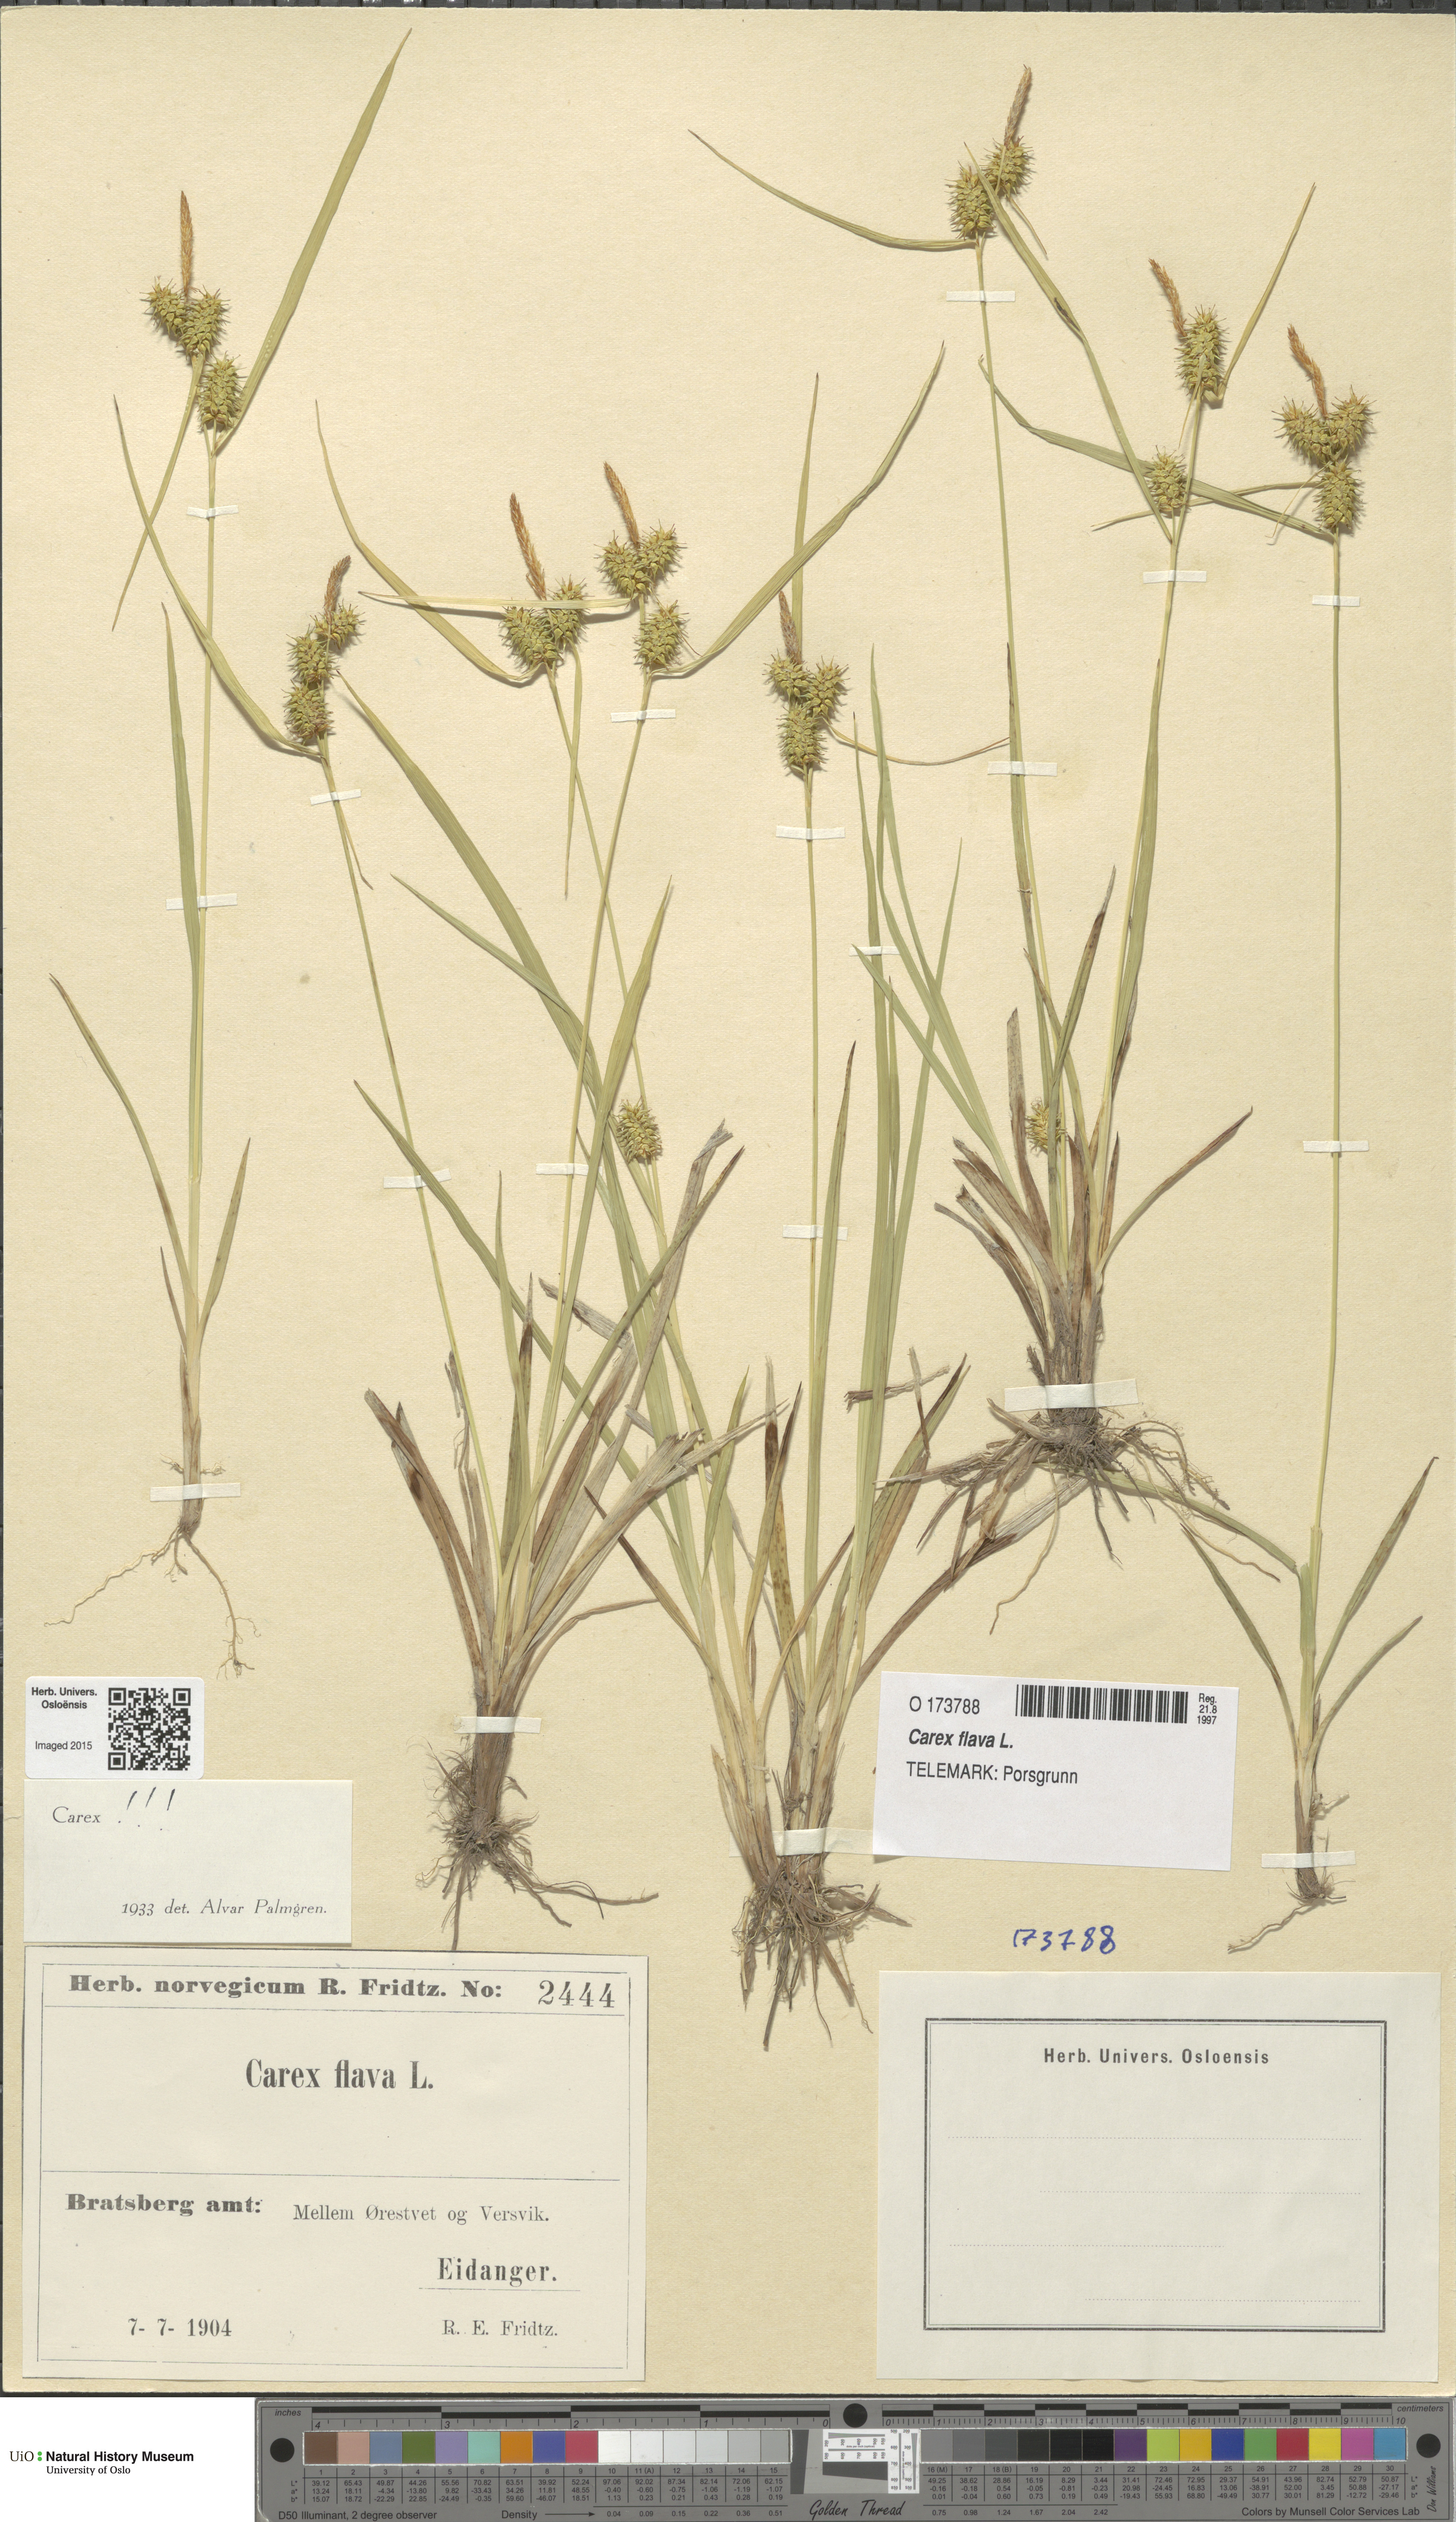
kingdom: Plantae
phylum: Tracheophyta
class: Liliopsida
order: Poales
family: Cyperaceae
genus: Carex
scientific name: Carex flava
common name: Large yellow-sedge
